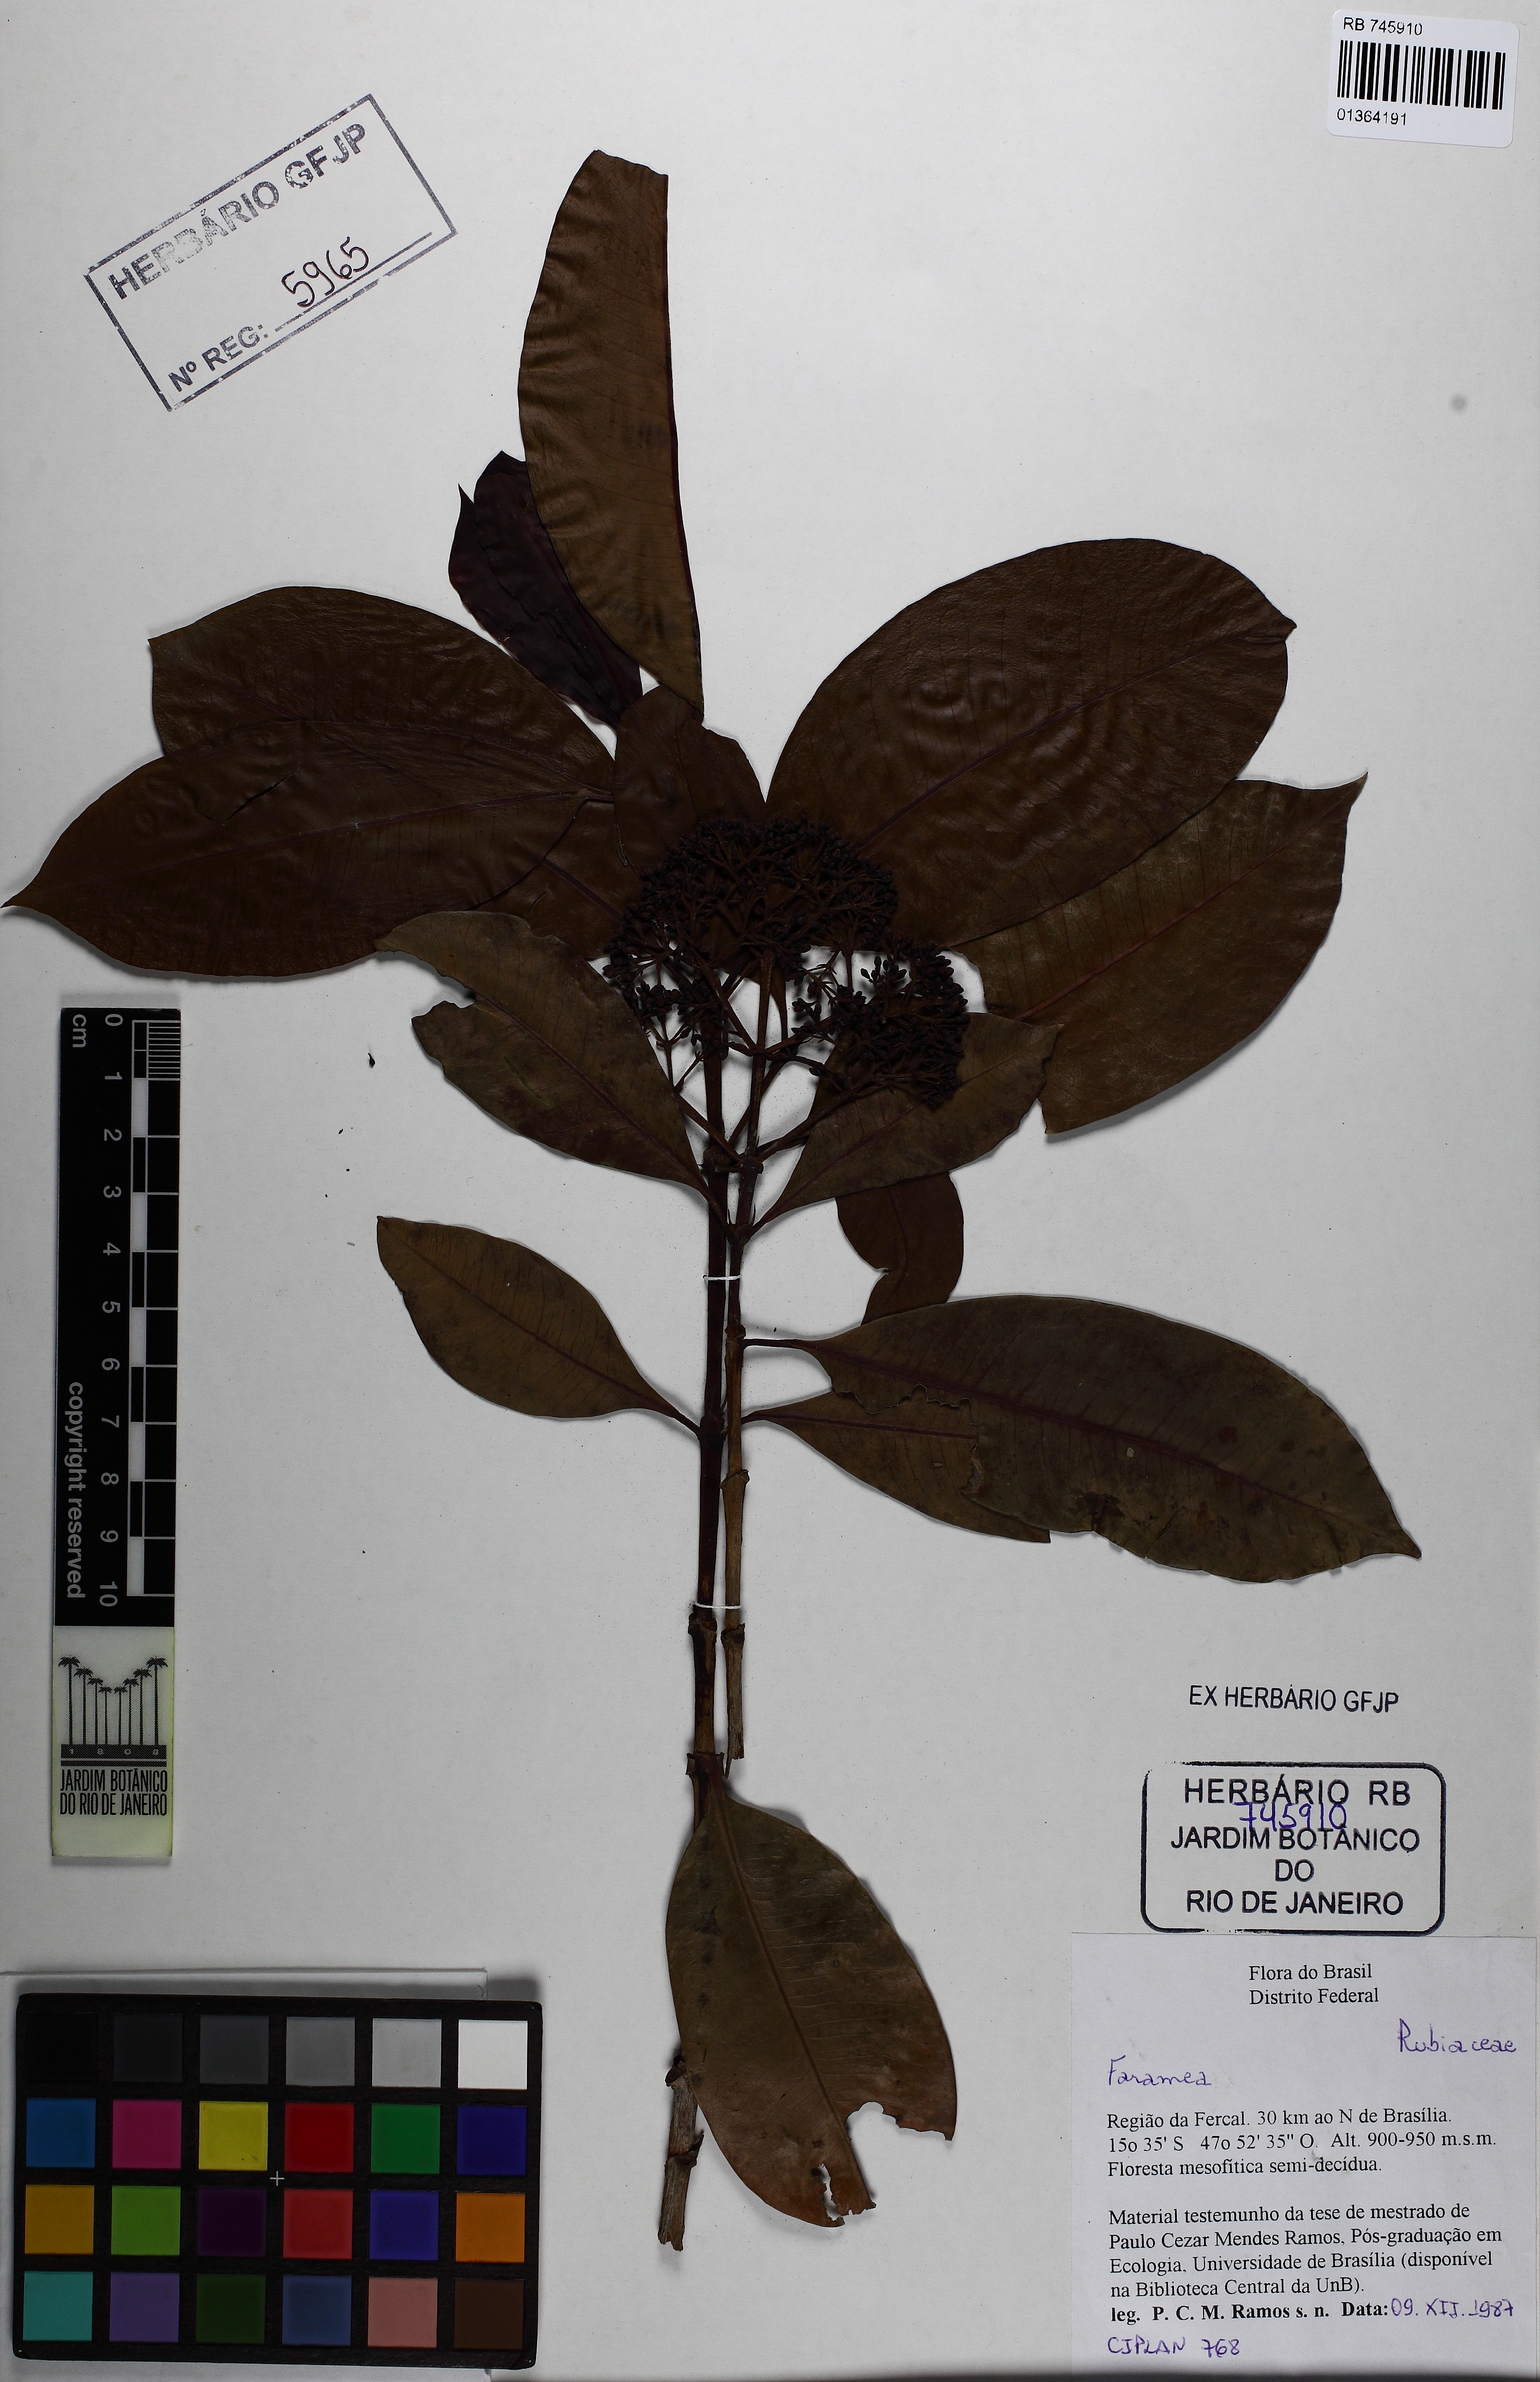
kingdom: Plantae
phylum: Tracheophyta
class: Magnoliopsida
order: Gentianales
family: Rubiaceae
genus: Ixora
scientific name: Ixora
